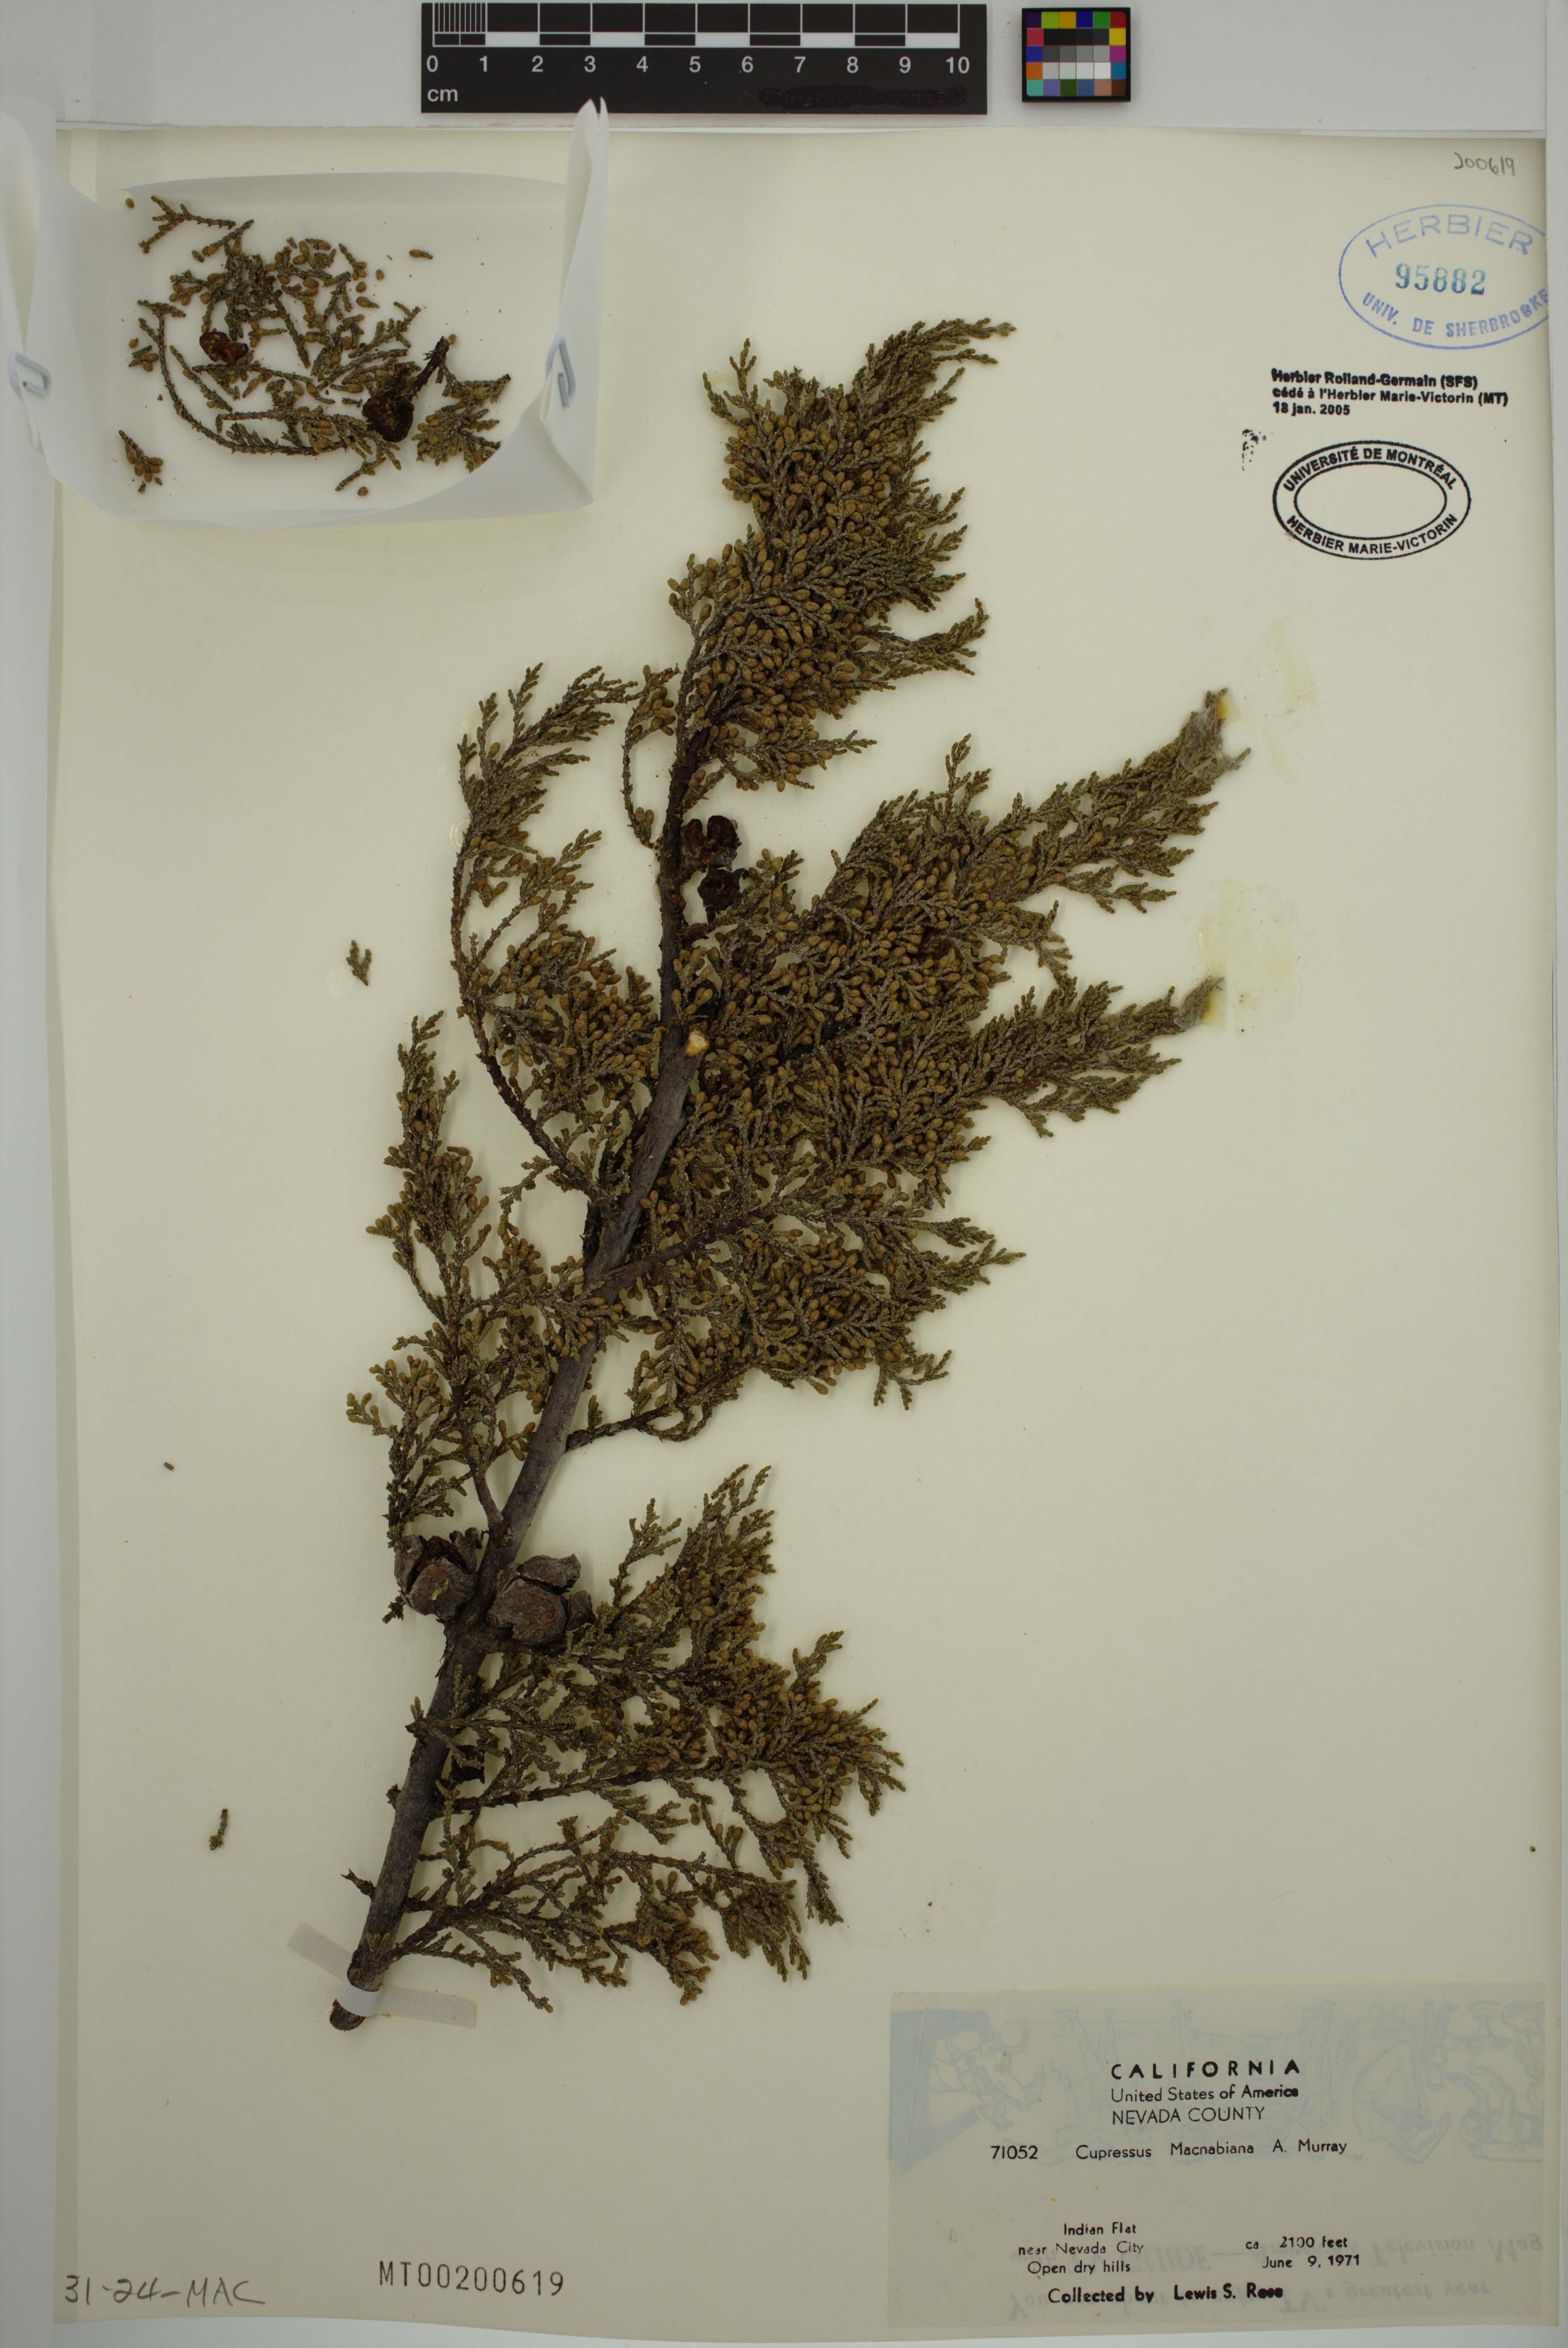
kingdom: Plantae
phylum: Tracheophyta
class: Pinopsida
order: Pinales
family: Cupressaceae
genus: Cupressus
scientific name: Cupressus macnabiana bis
